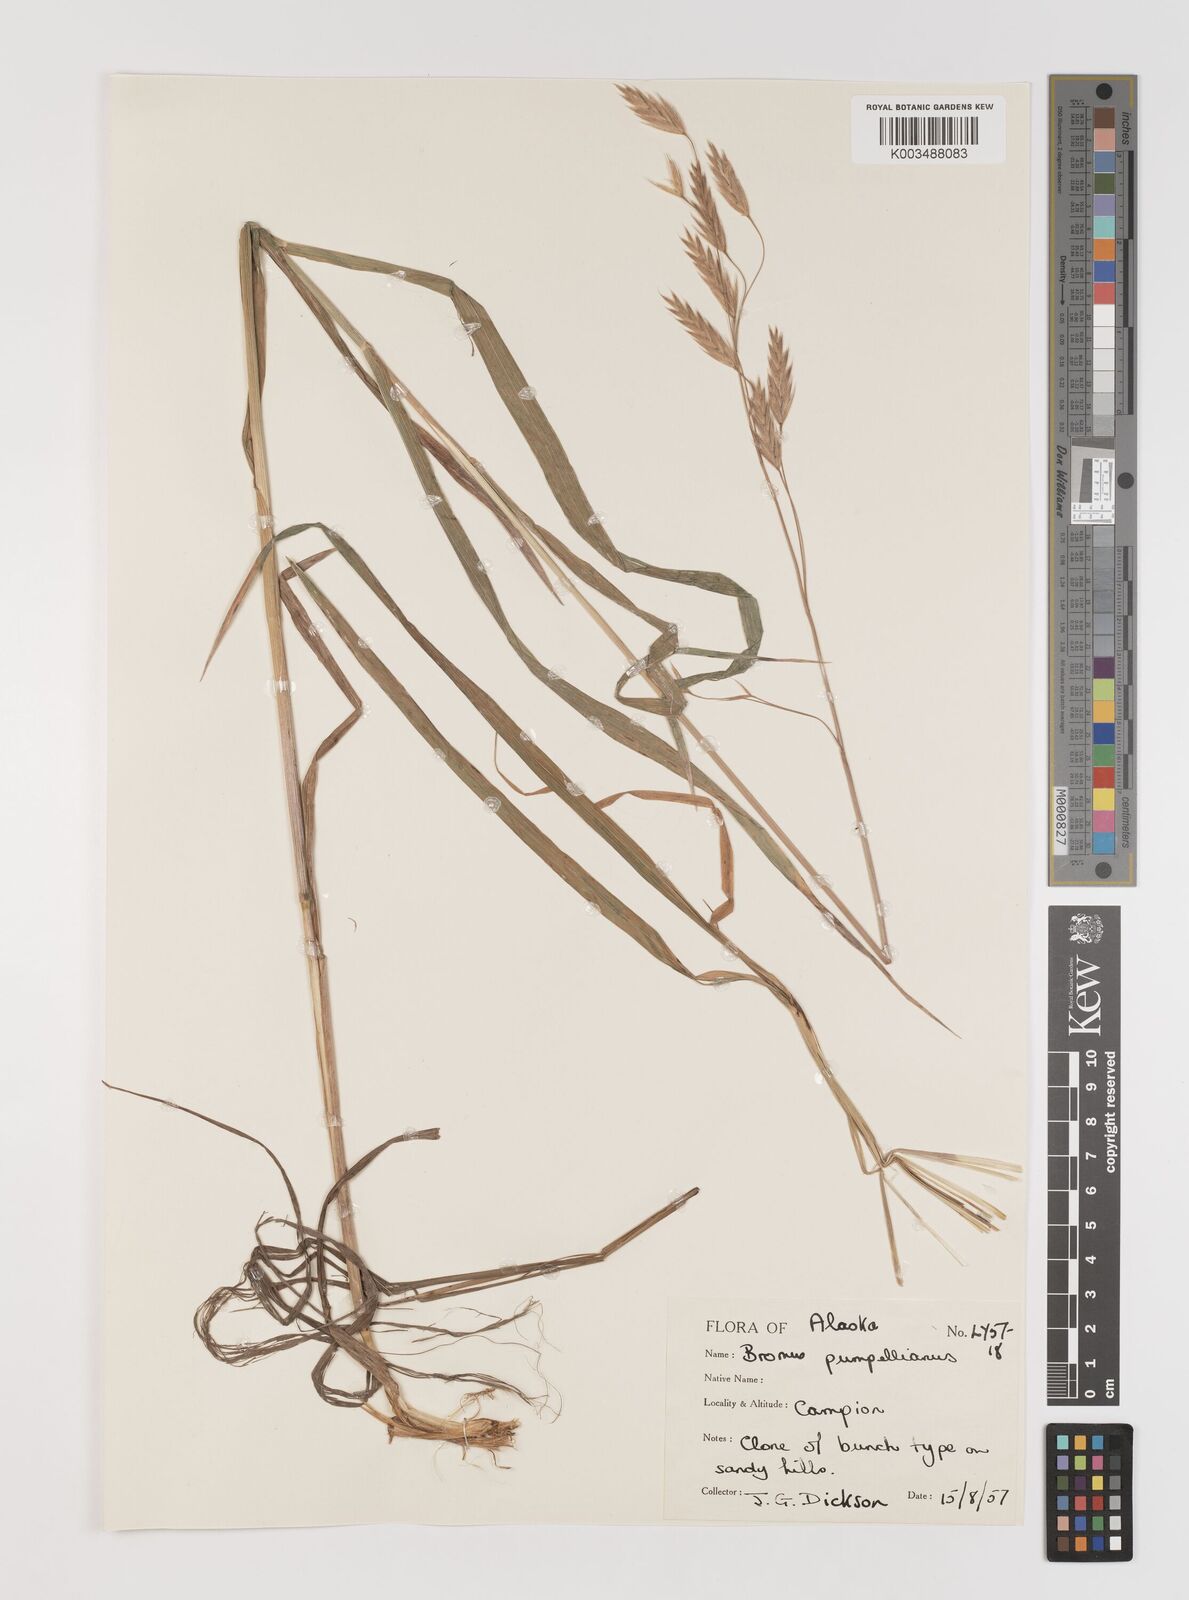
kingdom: Plantae
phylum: Tracheophyta
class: Liliopsida
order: Poales
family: Poaceae
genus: Bromus
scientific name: Bromus pumpellianus
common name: Pumpelly's brome
